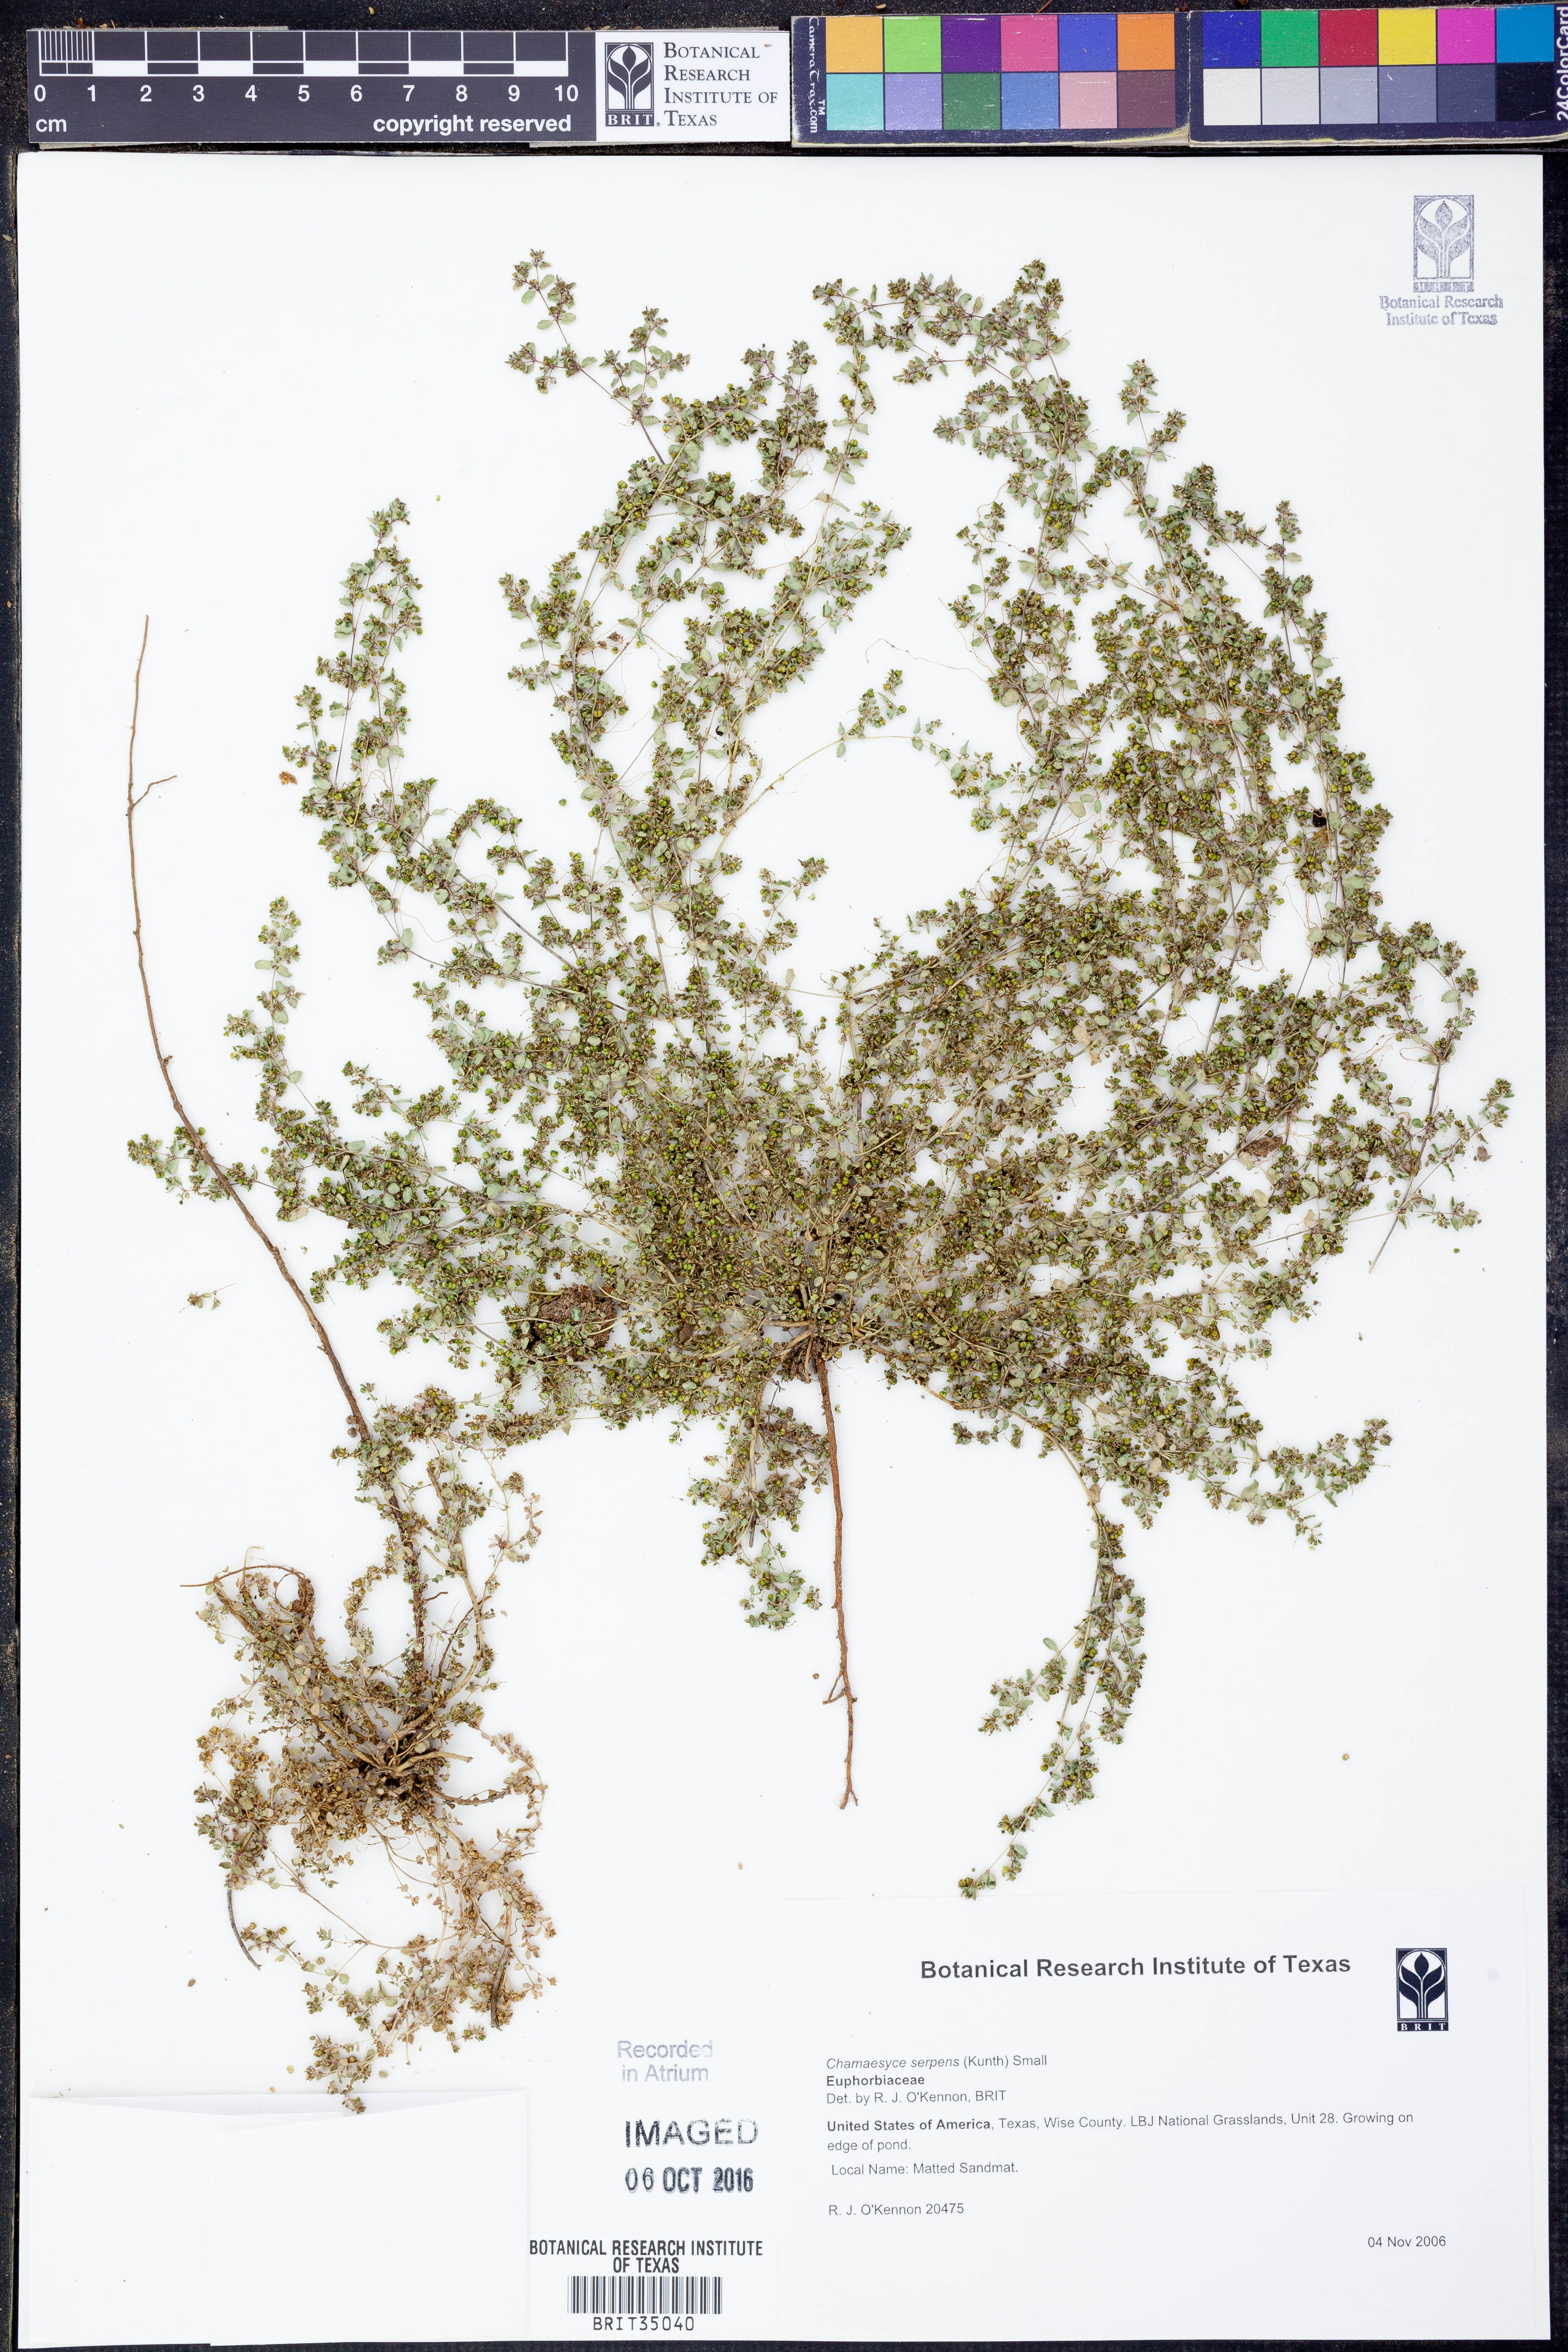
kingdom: Plantae
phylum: Tracheophyta
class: Magnoliopsida
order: Malpighiales
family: Euphorbiaceae
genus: Euphorbia
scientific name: Euphorbia serpens
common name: Matted sandmat
